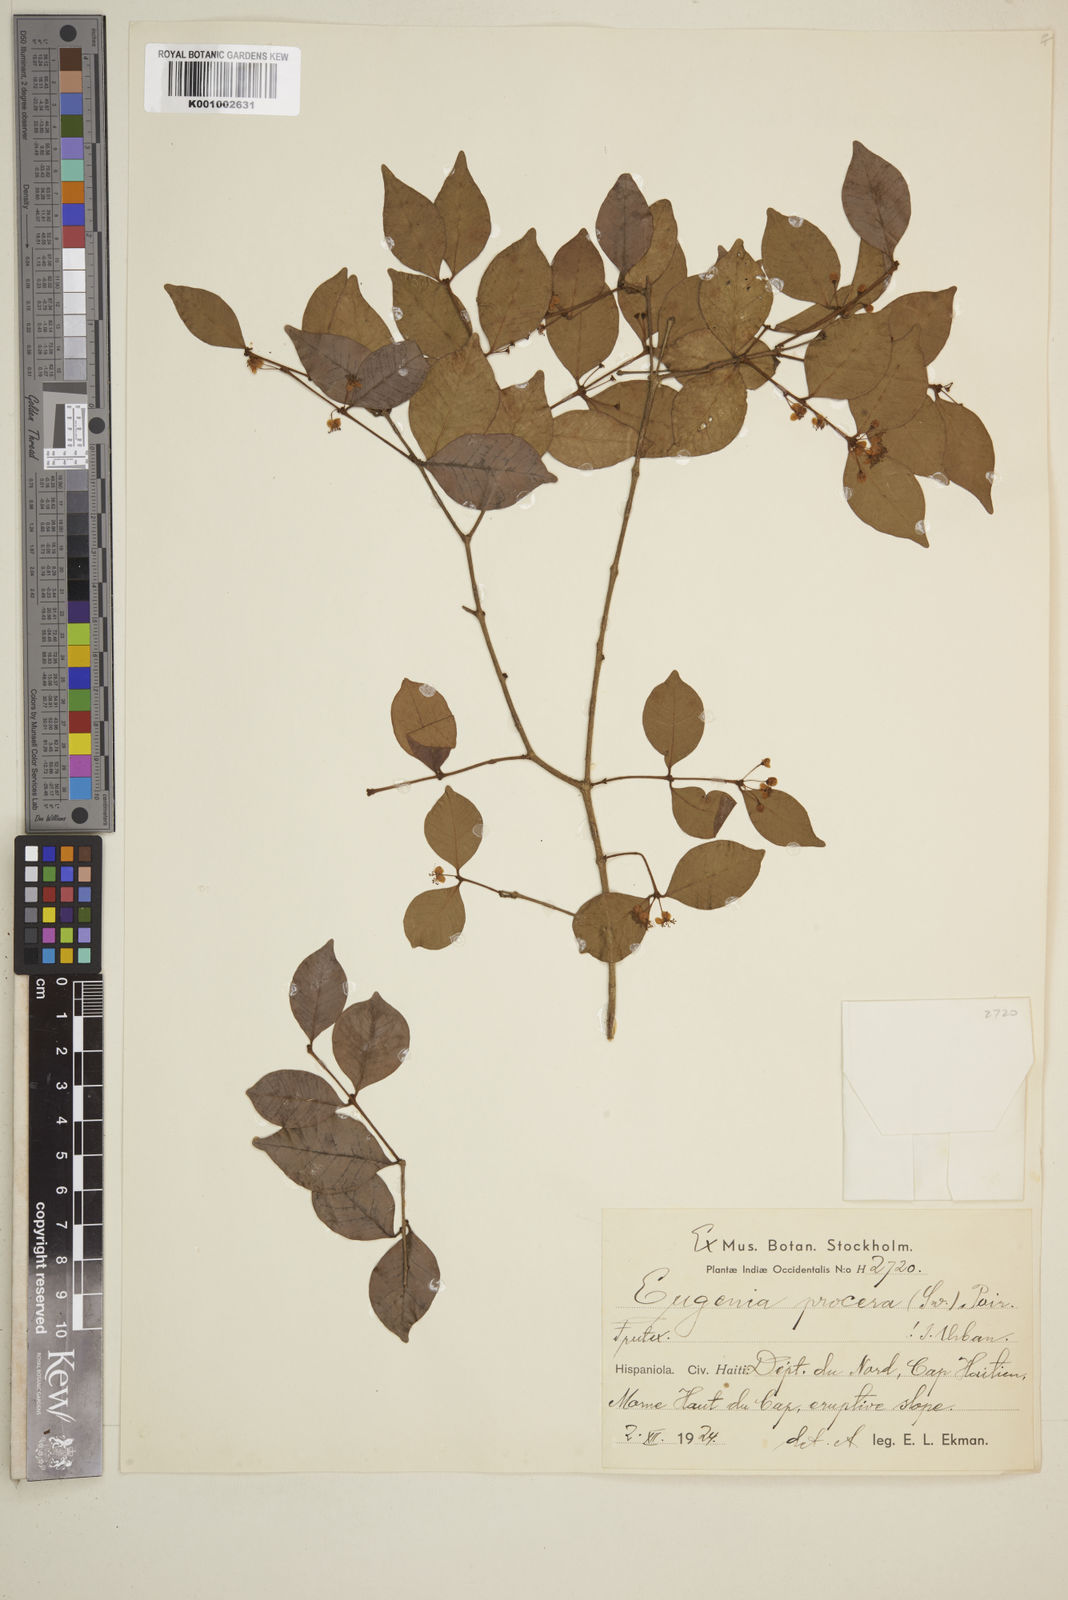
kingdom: Plantae
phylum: Tracheophyta
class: Magnoliopsida
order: Myrtales
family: Myrtaceae
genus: Eugenia
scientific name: Eugenia procera
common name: Bastard blackberry
